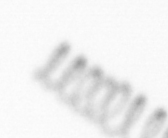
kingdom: Chromista
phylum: Ochrophyta
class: Bacillariophyceae
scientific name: Bacillariophyceae
